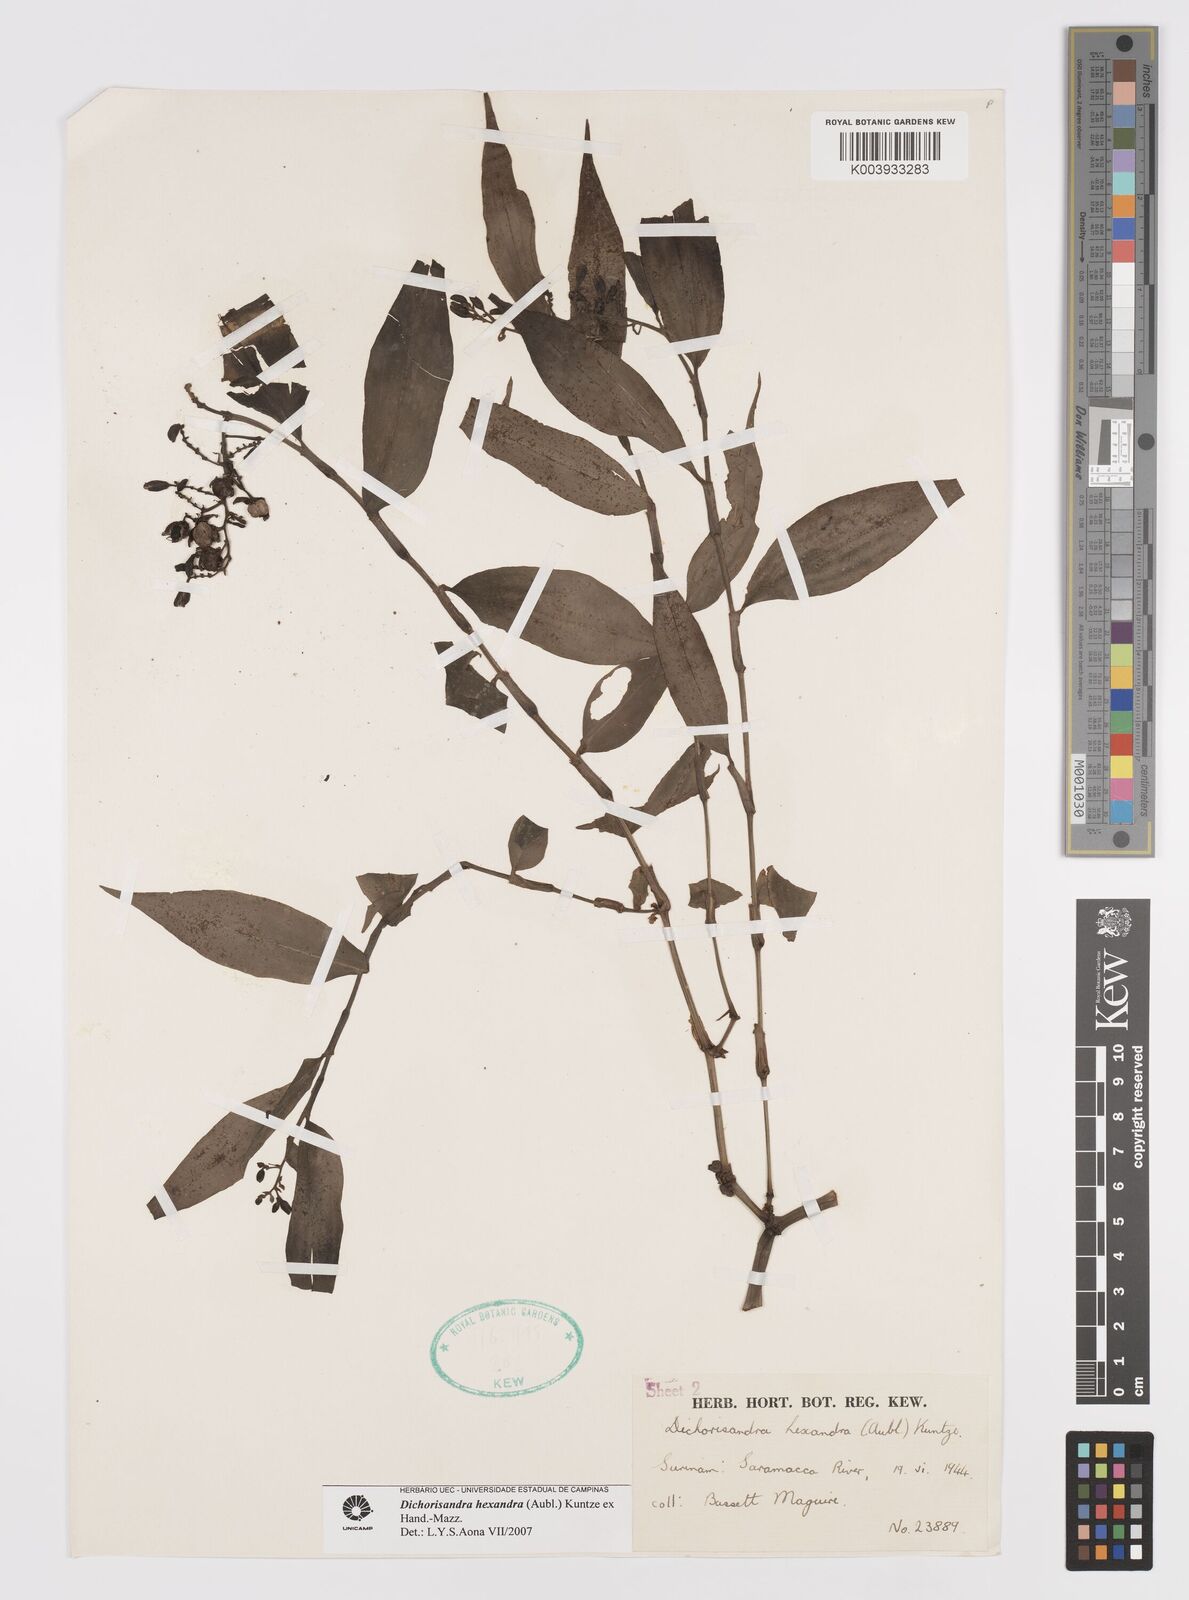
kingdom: Plantae
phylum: Tracheophyta
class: Liliopsida
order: Commelinales
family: Commelinaceae
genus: Dichorisandra
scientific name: Dichorisandra hexandra
